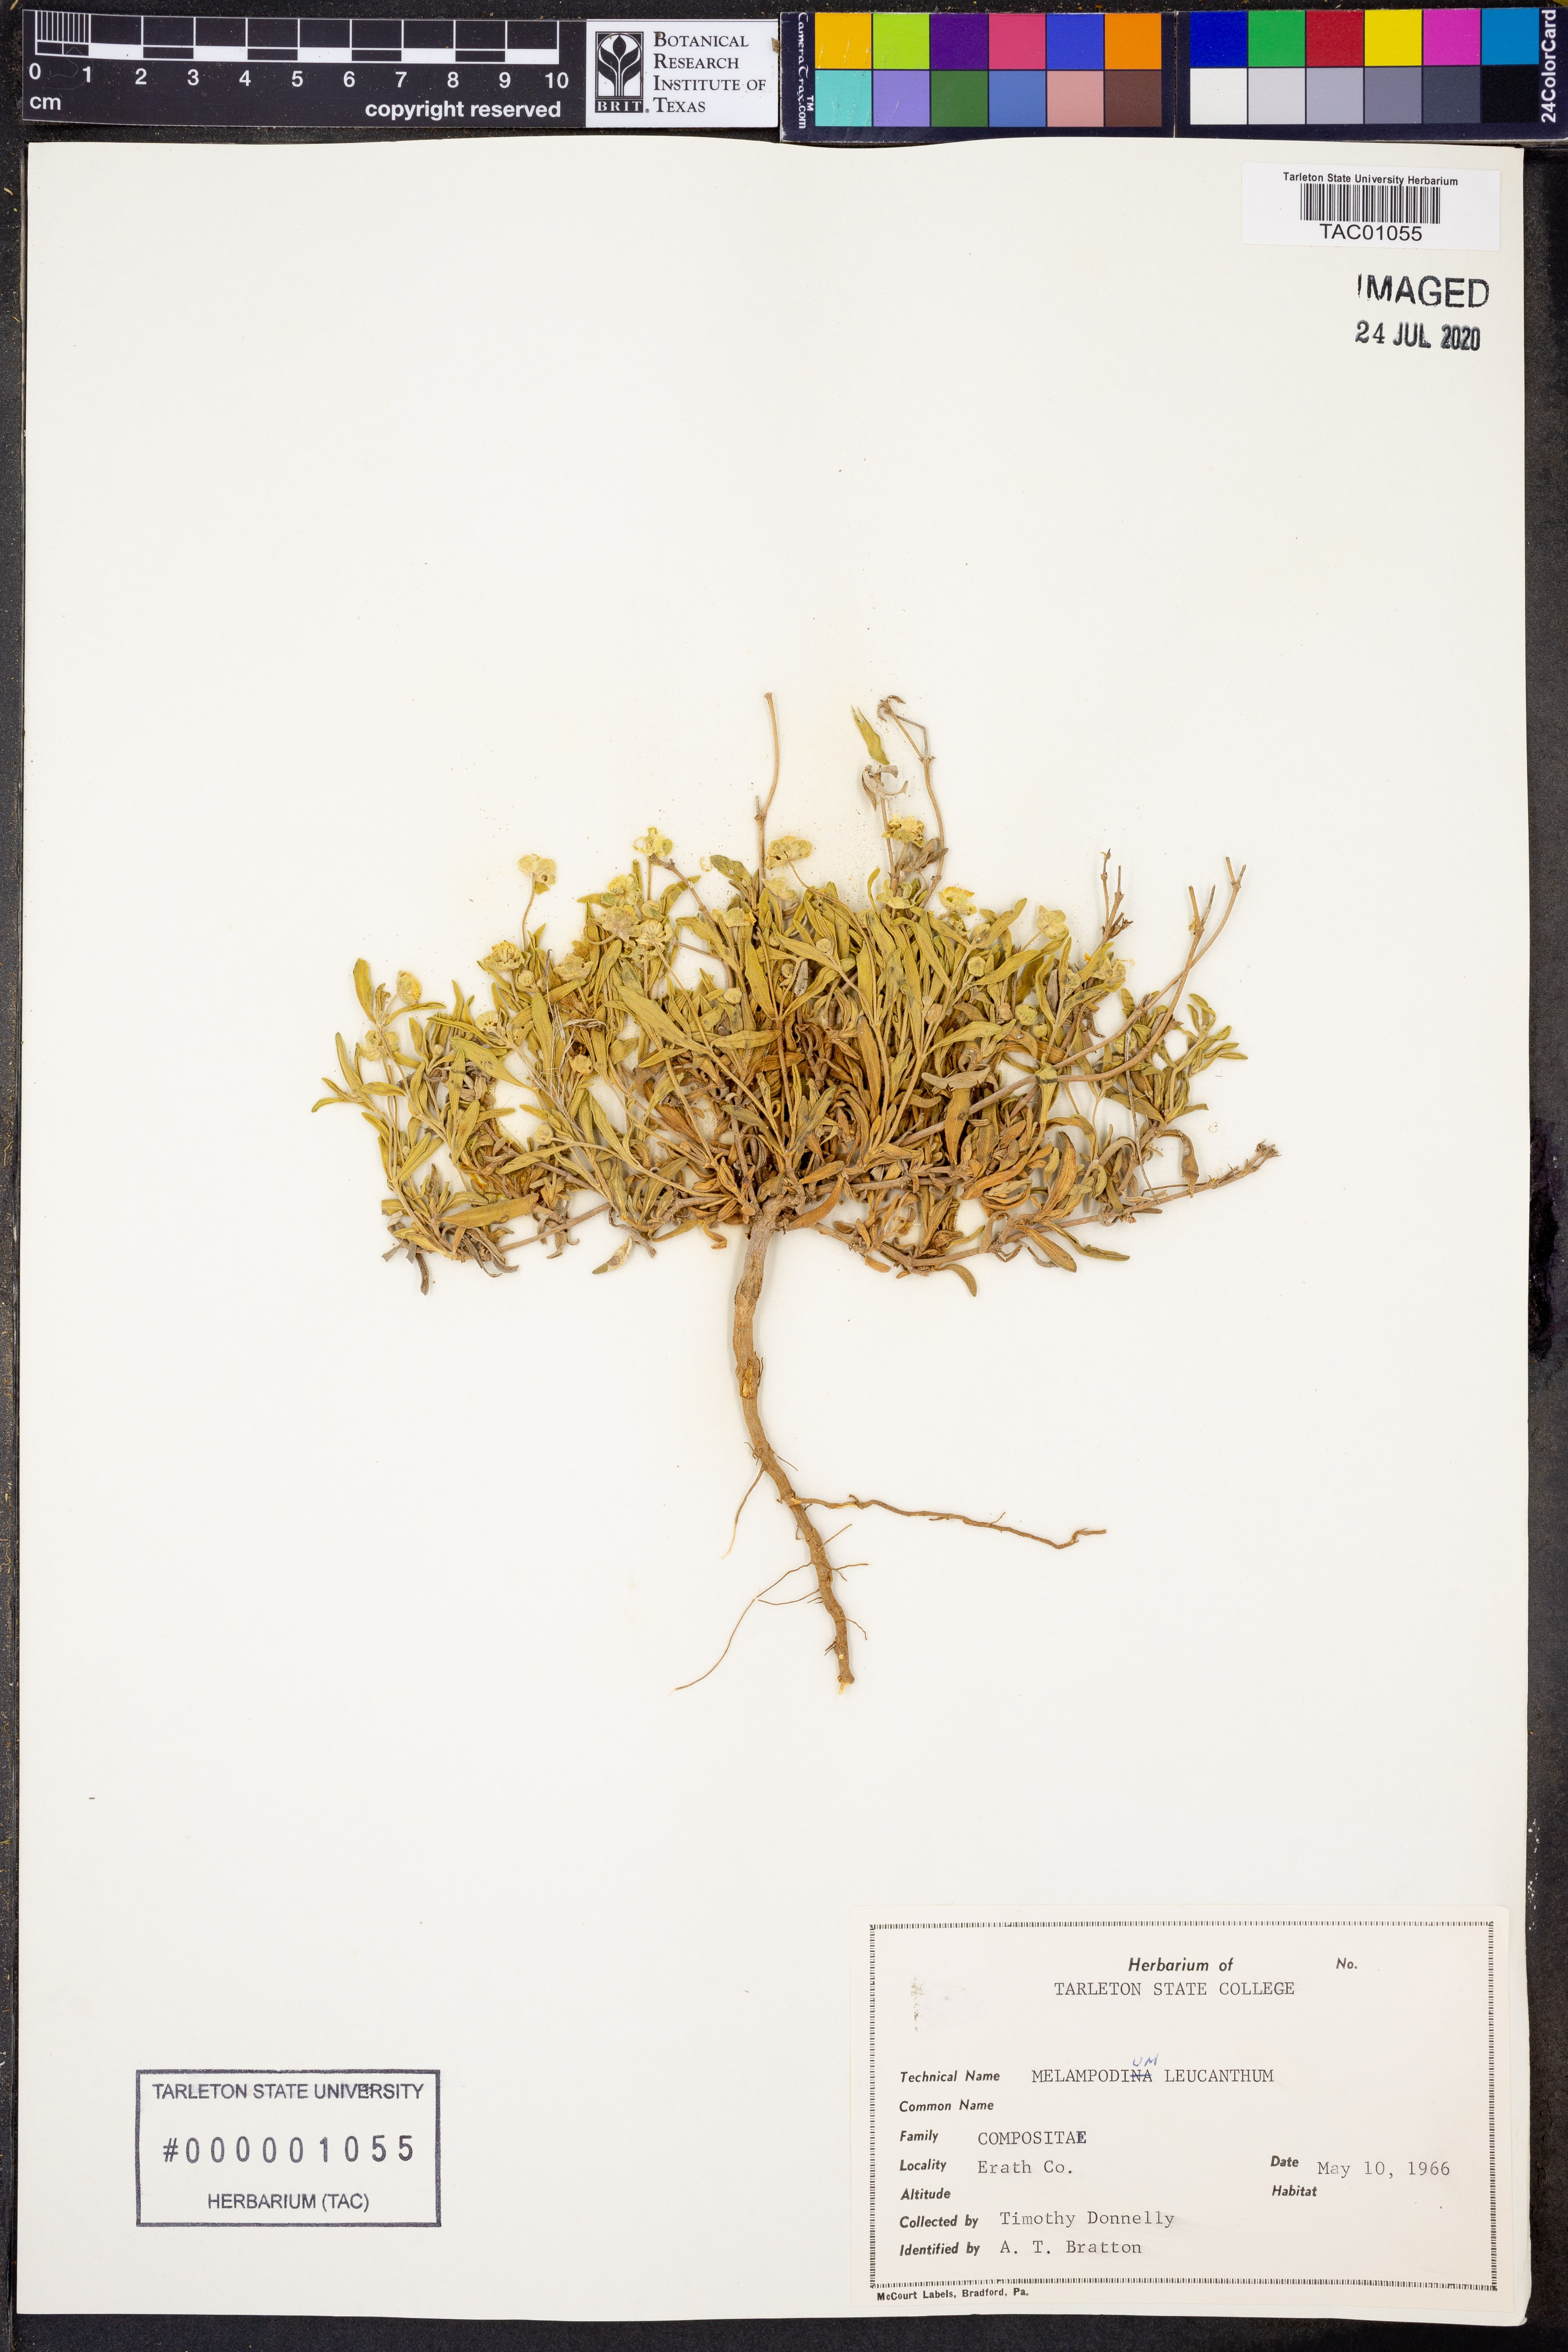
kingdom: Plantae
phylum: Tracheophyta
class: Magnoliopsida
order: Asterales
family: Asteraceae
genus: Melampodium
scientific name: Melampodium leucanthum
